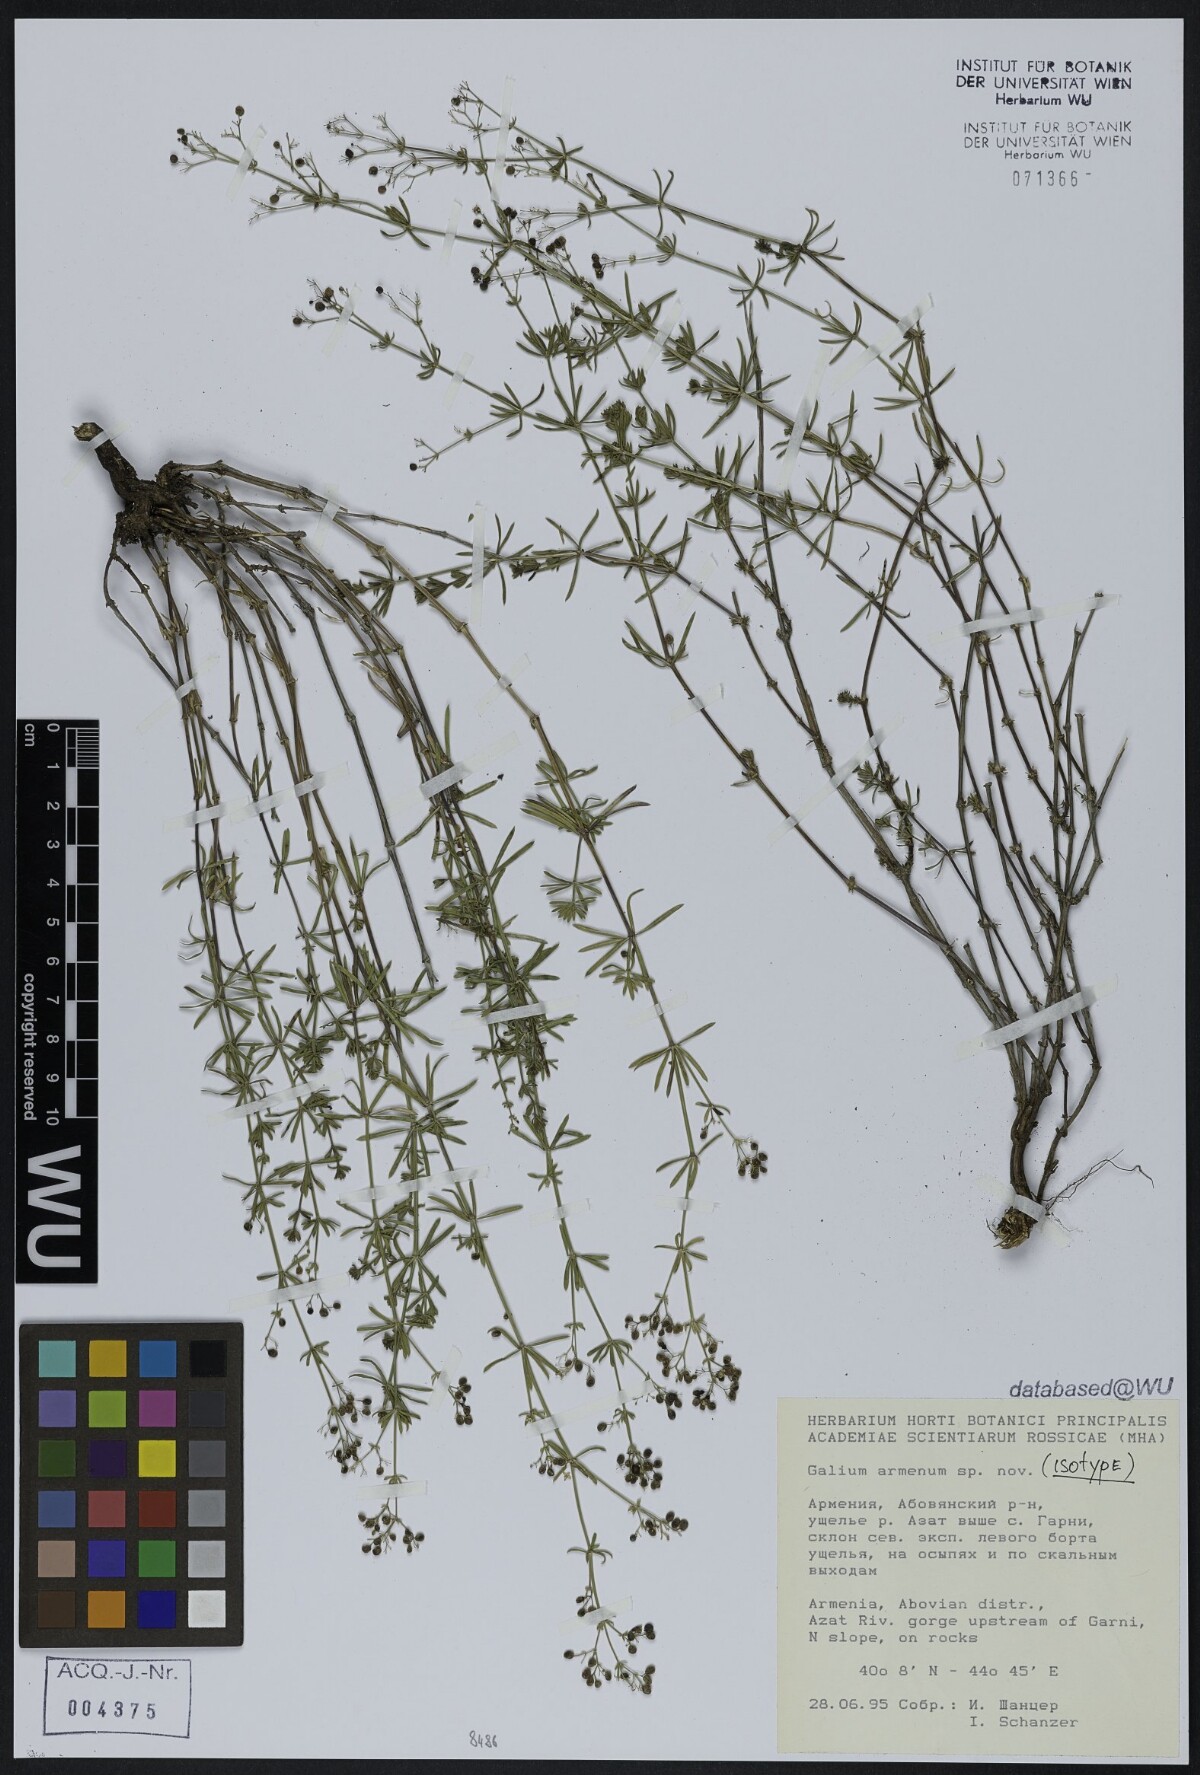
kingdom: Plantae
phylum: Tracheophyta
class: Magnoliopsida
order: Gentianales
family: Rubiaceae
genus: Galium
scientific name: Galium armenum
